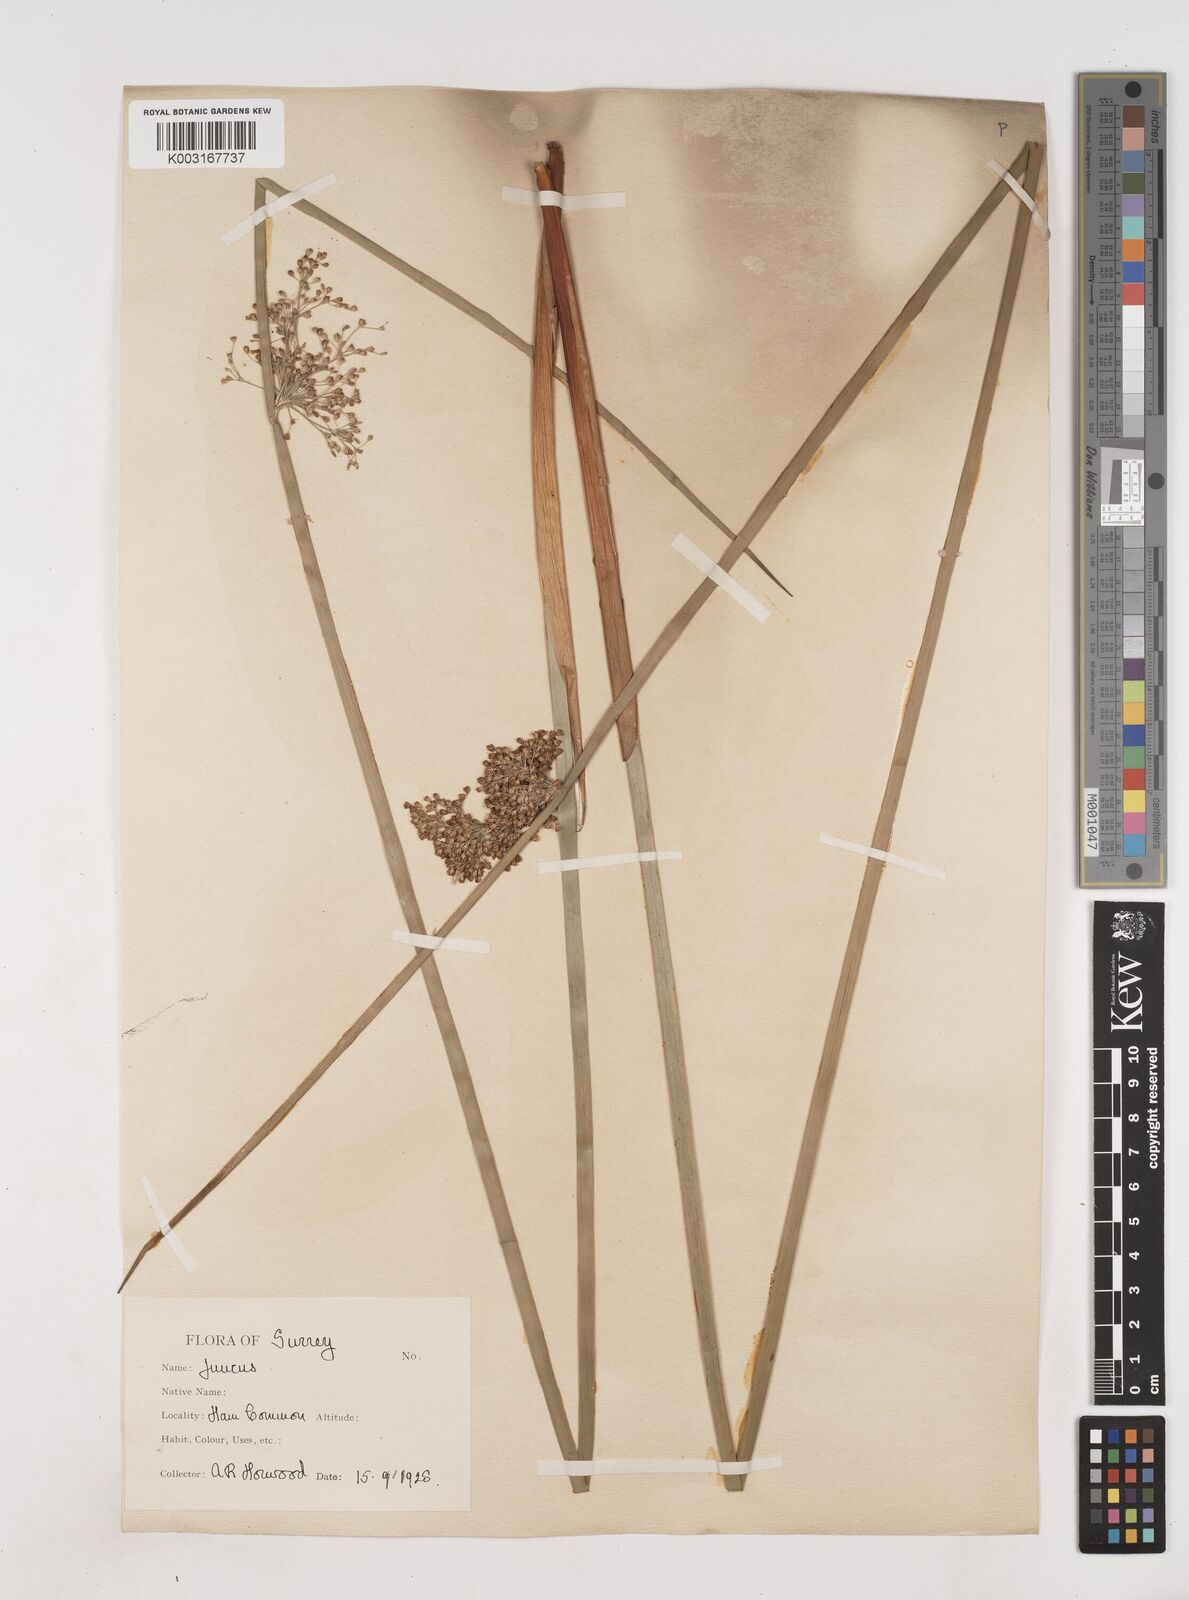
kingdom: Plantae
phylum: Tracheophyta
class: Liliopsida
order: Poales
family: Juncaceae
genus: Juncus
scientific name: Juncus effusus
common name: Soft rush
